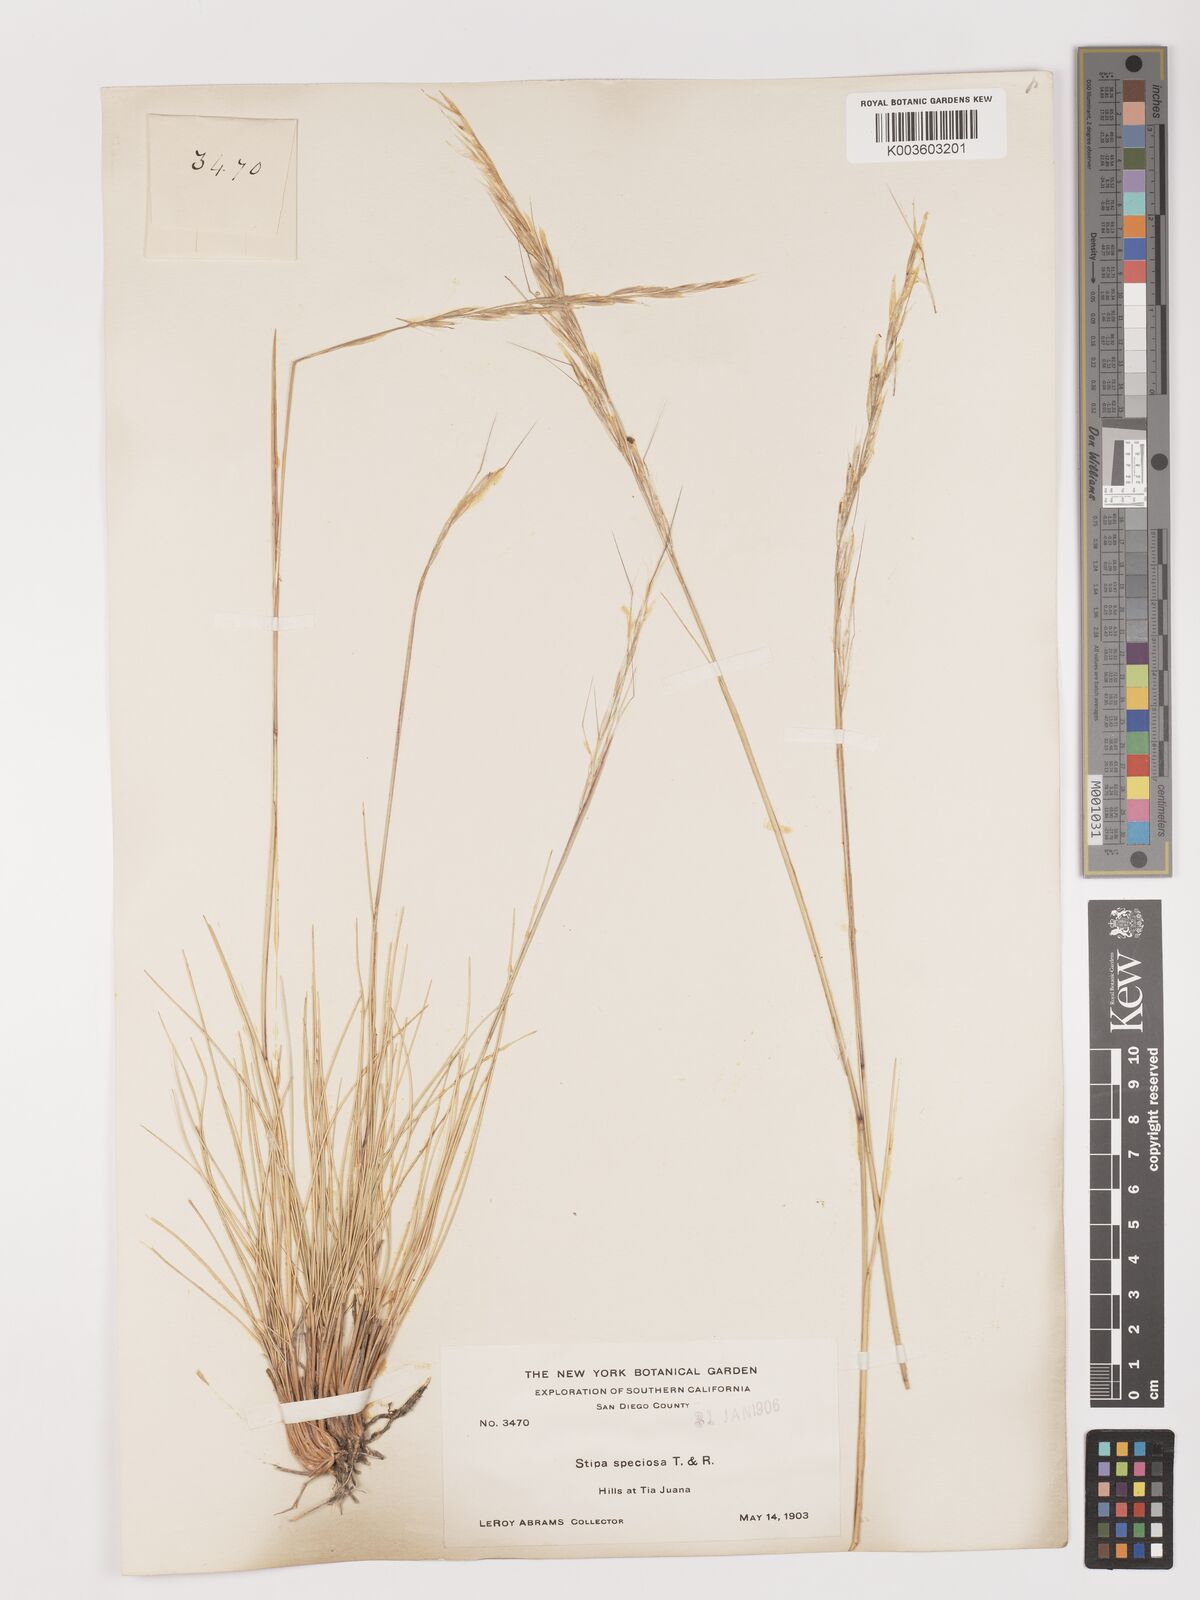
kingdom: Plantae
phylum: Tracheophyta
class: Liliopsida
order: Poales
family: Poaceae
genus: Pappostipa
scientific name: Pappostipa speciosa
